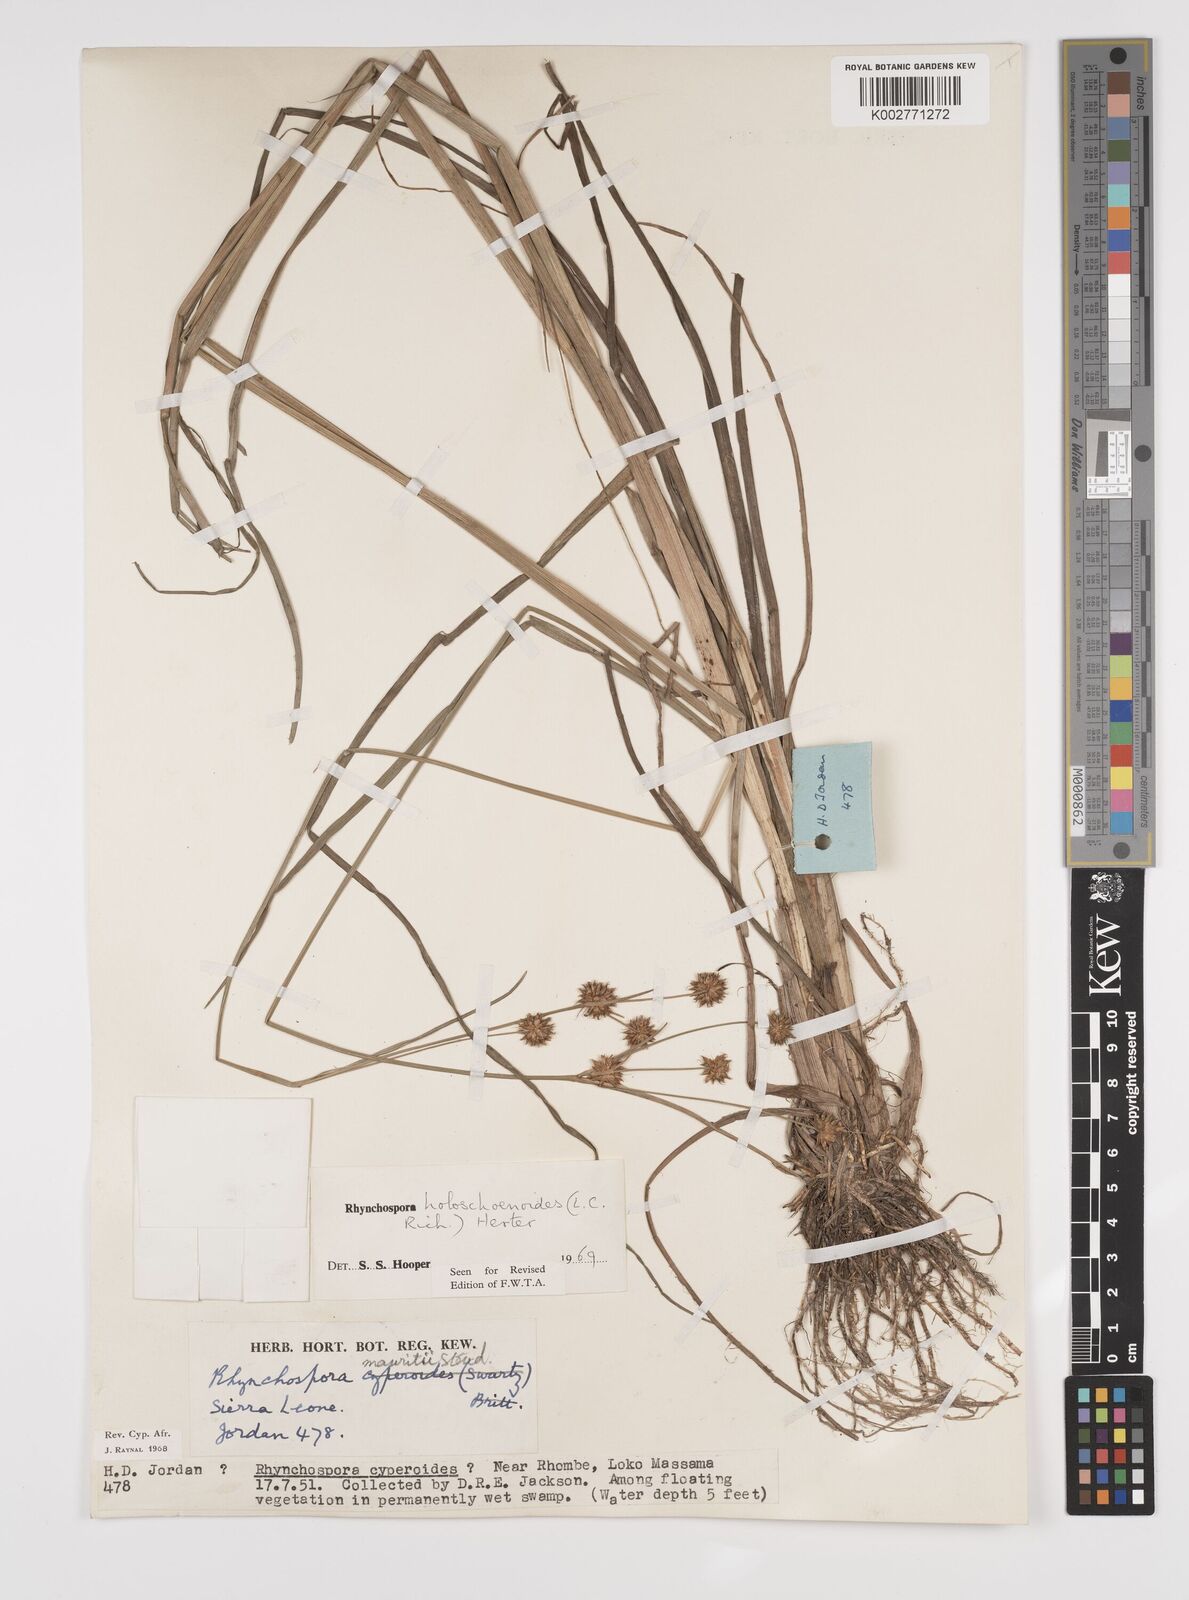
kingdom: Plantae
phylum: Tracheophyta
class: Liliopsida
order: Poales
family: Cyperaceae
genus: Rhynchospora
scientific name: Rhynchospora holoschoenoides
